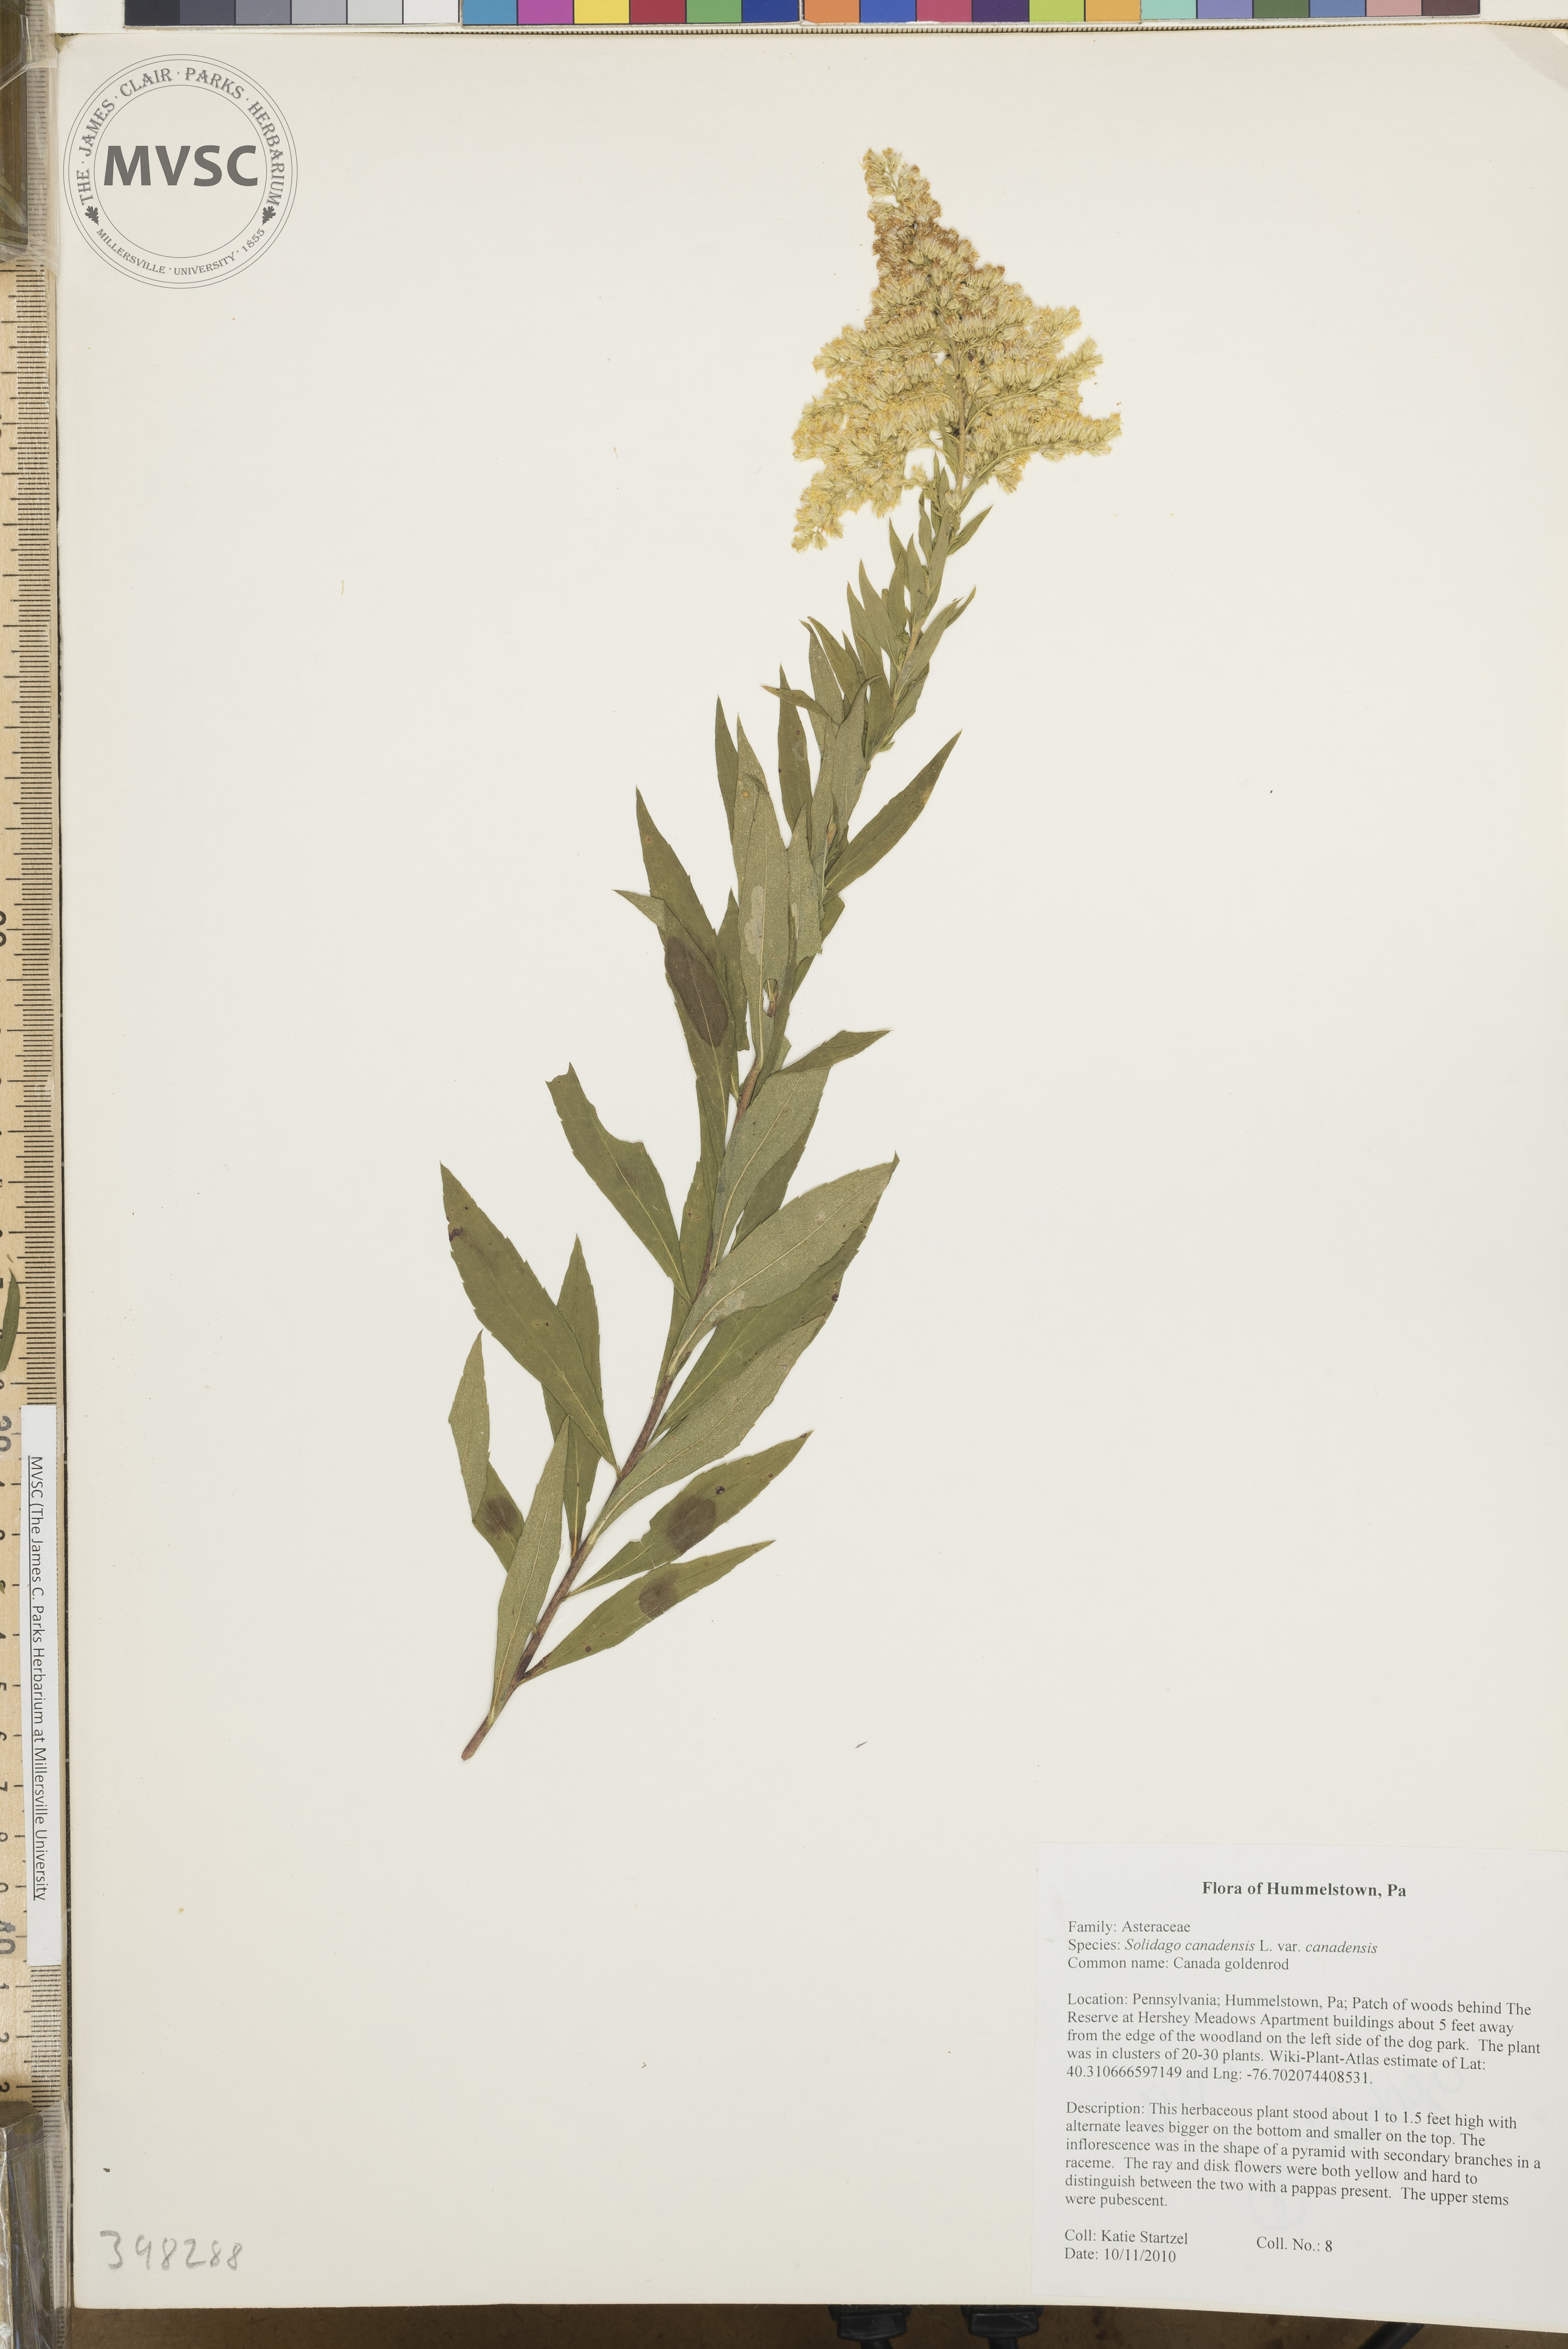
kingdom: Plantae
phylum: Tracheophyta
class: Magnoliopsida
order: Asterales
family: Asteraceae
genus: Solidago
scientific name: Solidago altissima
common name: Late goldenrod
